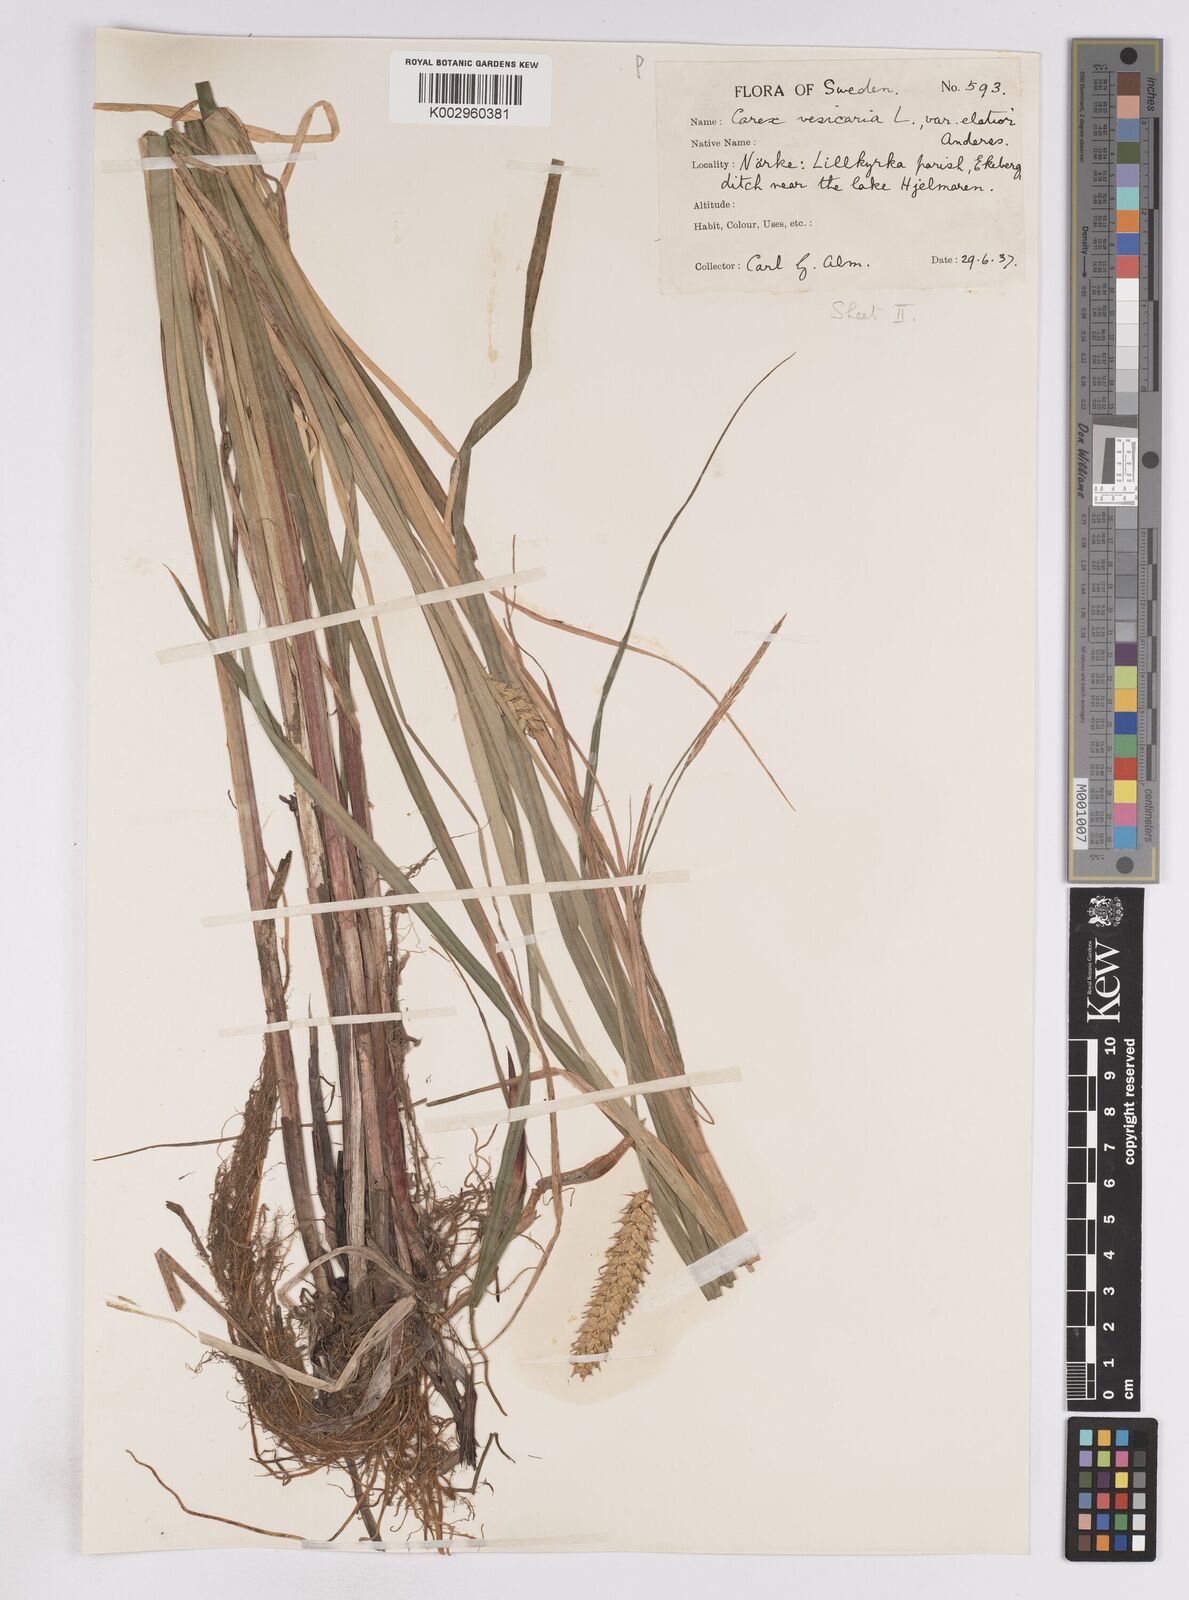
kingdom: Plantae
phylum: Tracheophyta
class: Liliopsida
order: Poales
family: Cyperaceae
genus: Carex
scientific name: Carex vesicaria
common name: Bladder-sedge
